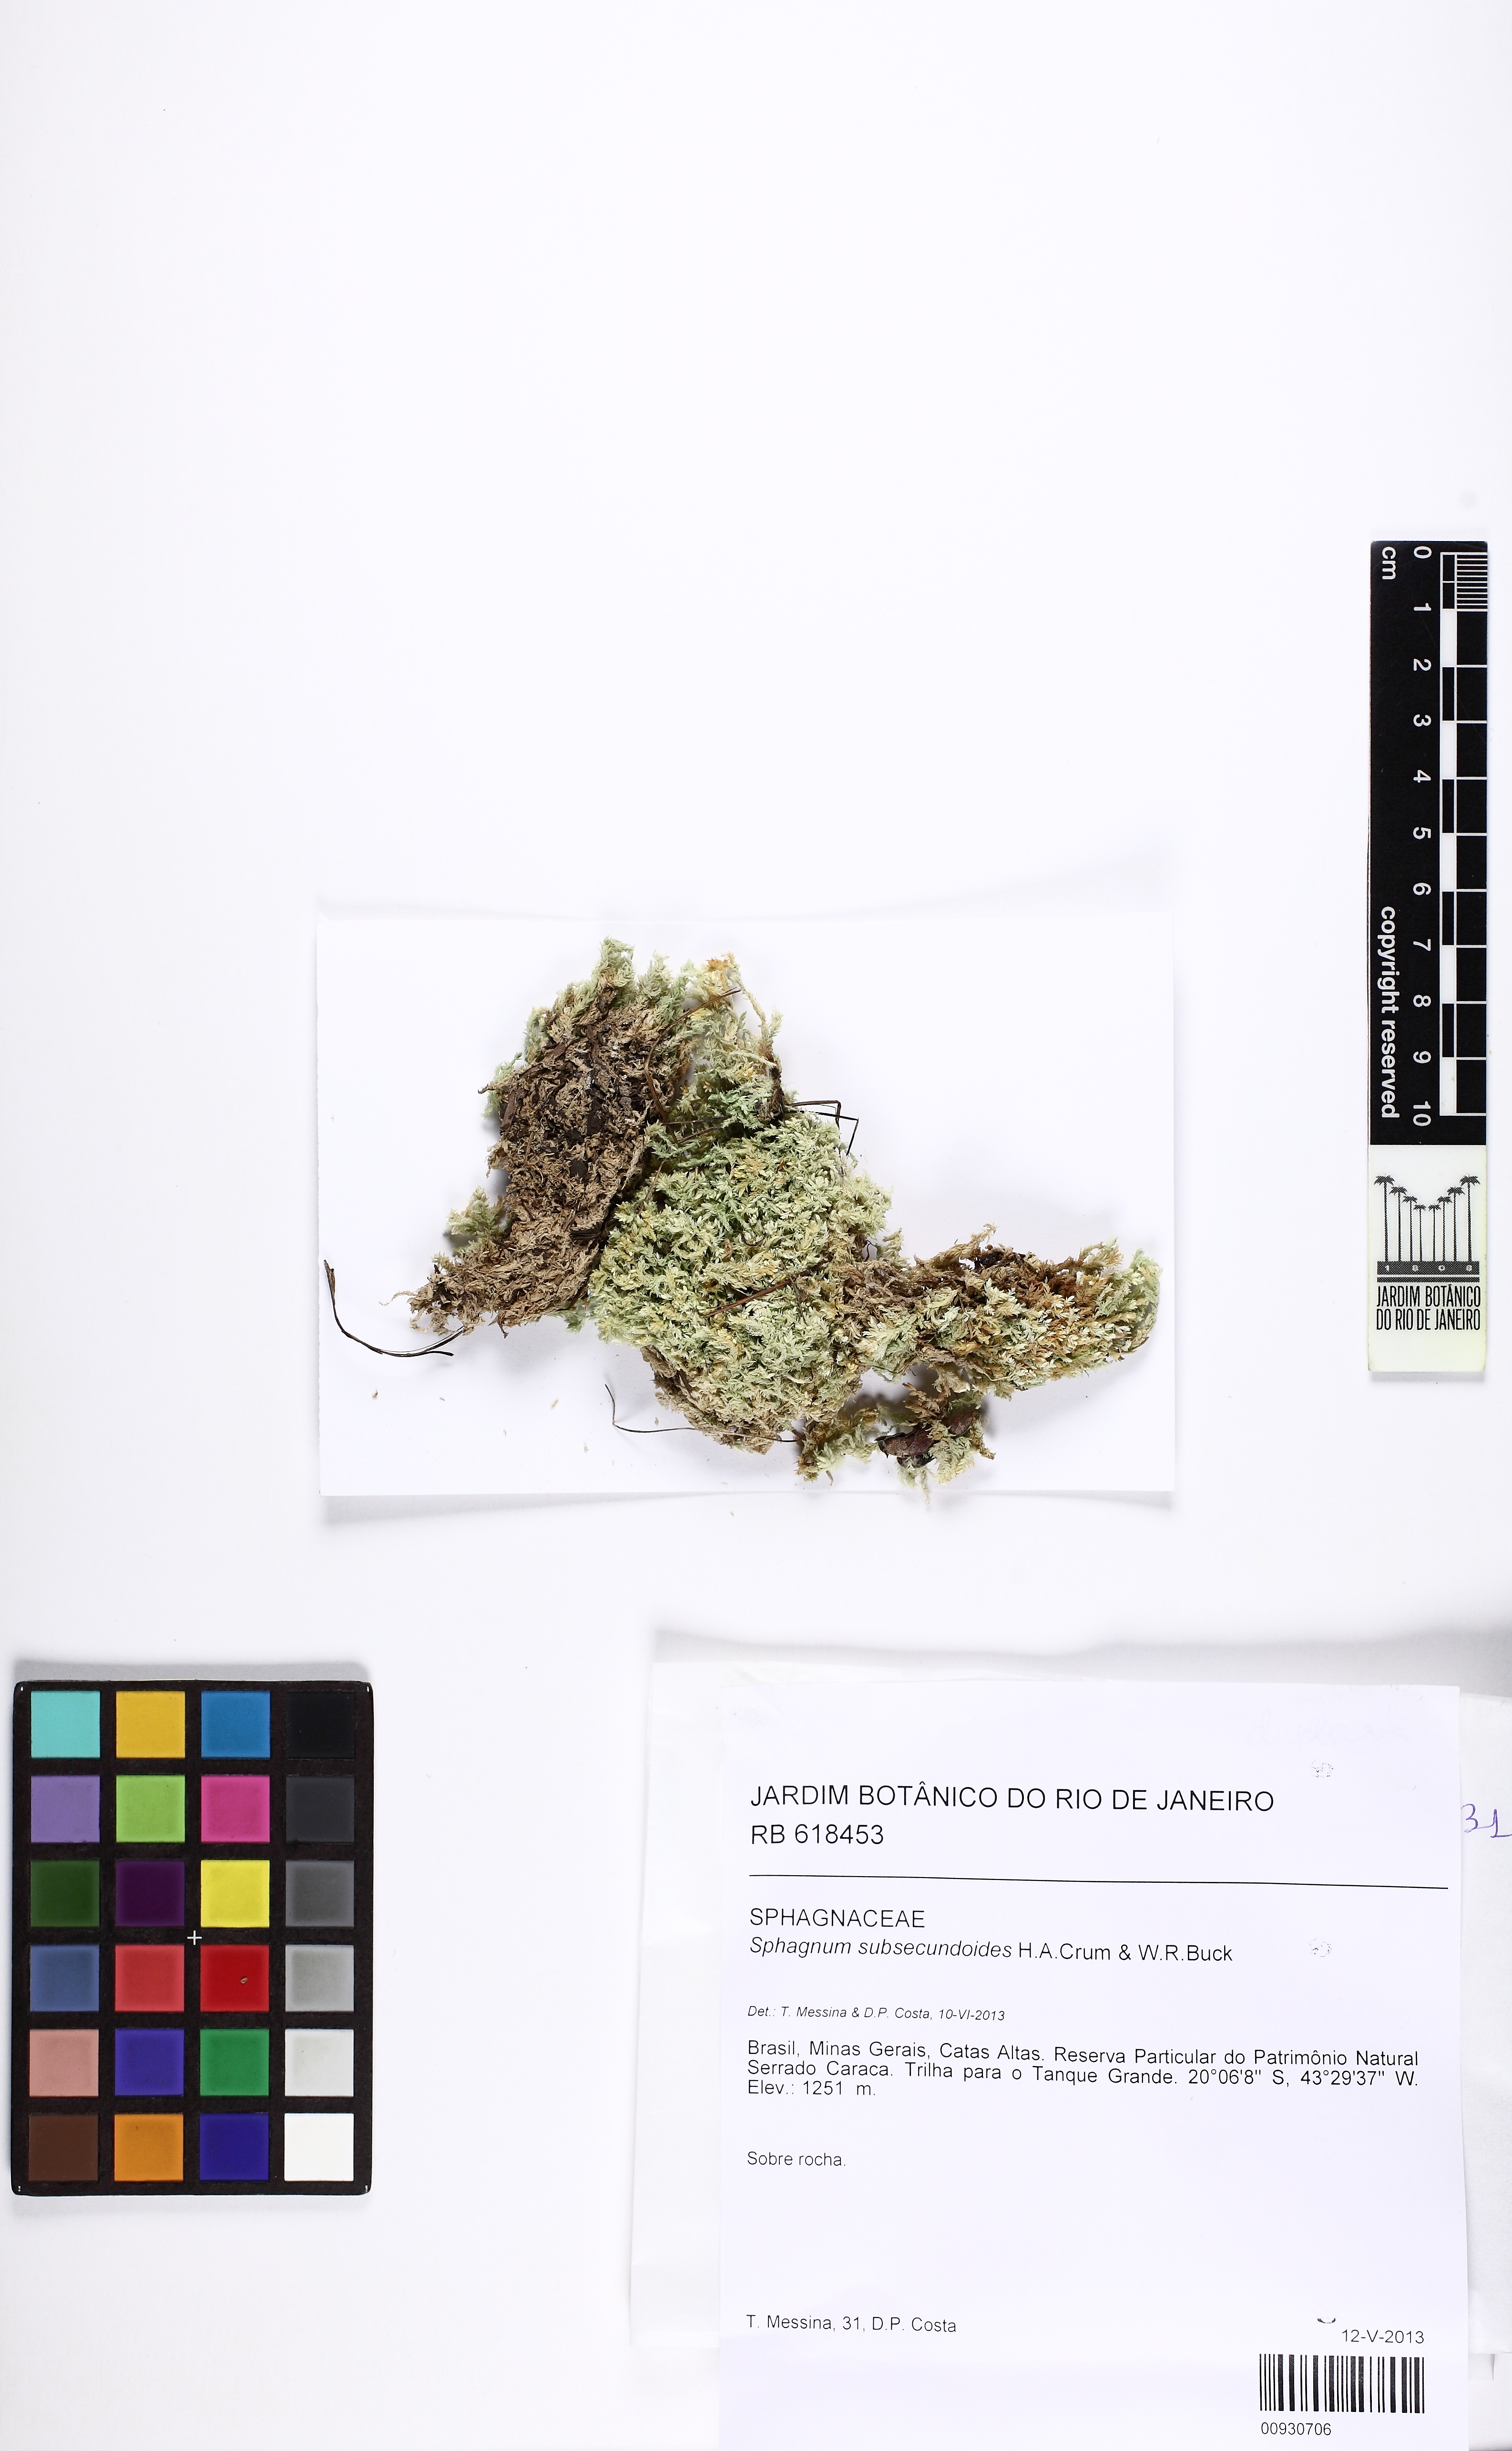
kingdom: Plantae
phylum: Bryophyta
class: Sphagnopsida
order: Sphagnales
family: Sphagnaceae
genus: Sphagnum
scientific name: Sphagnum subsecundoides
